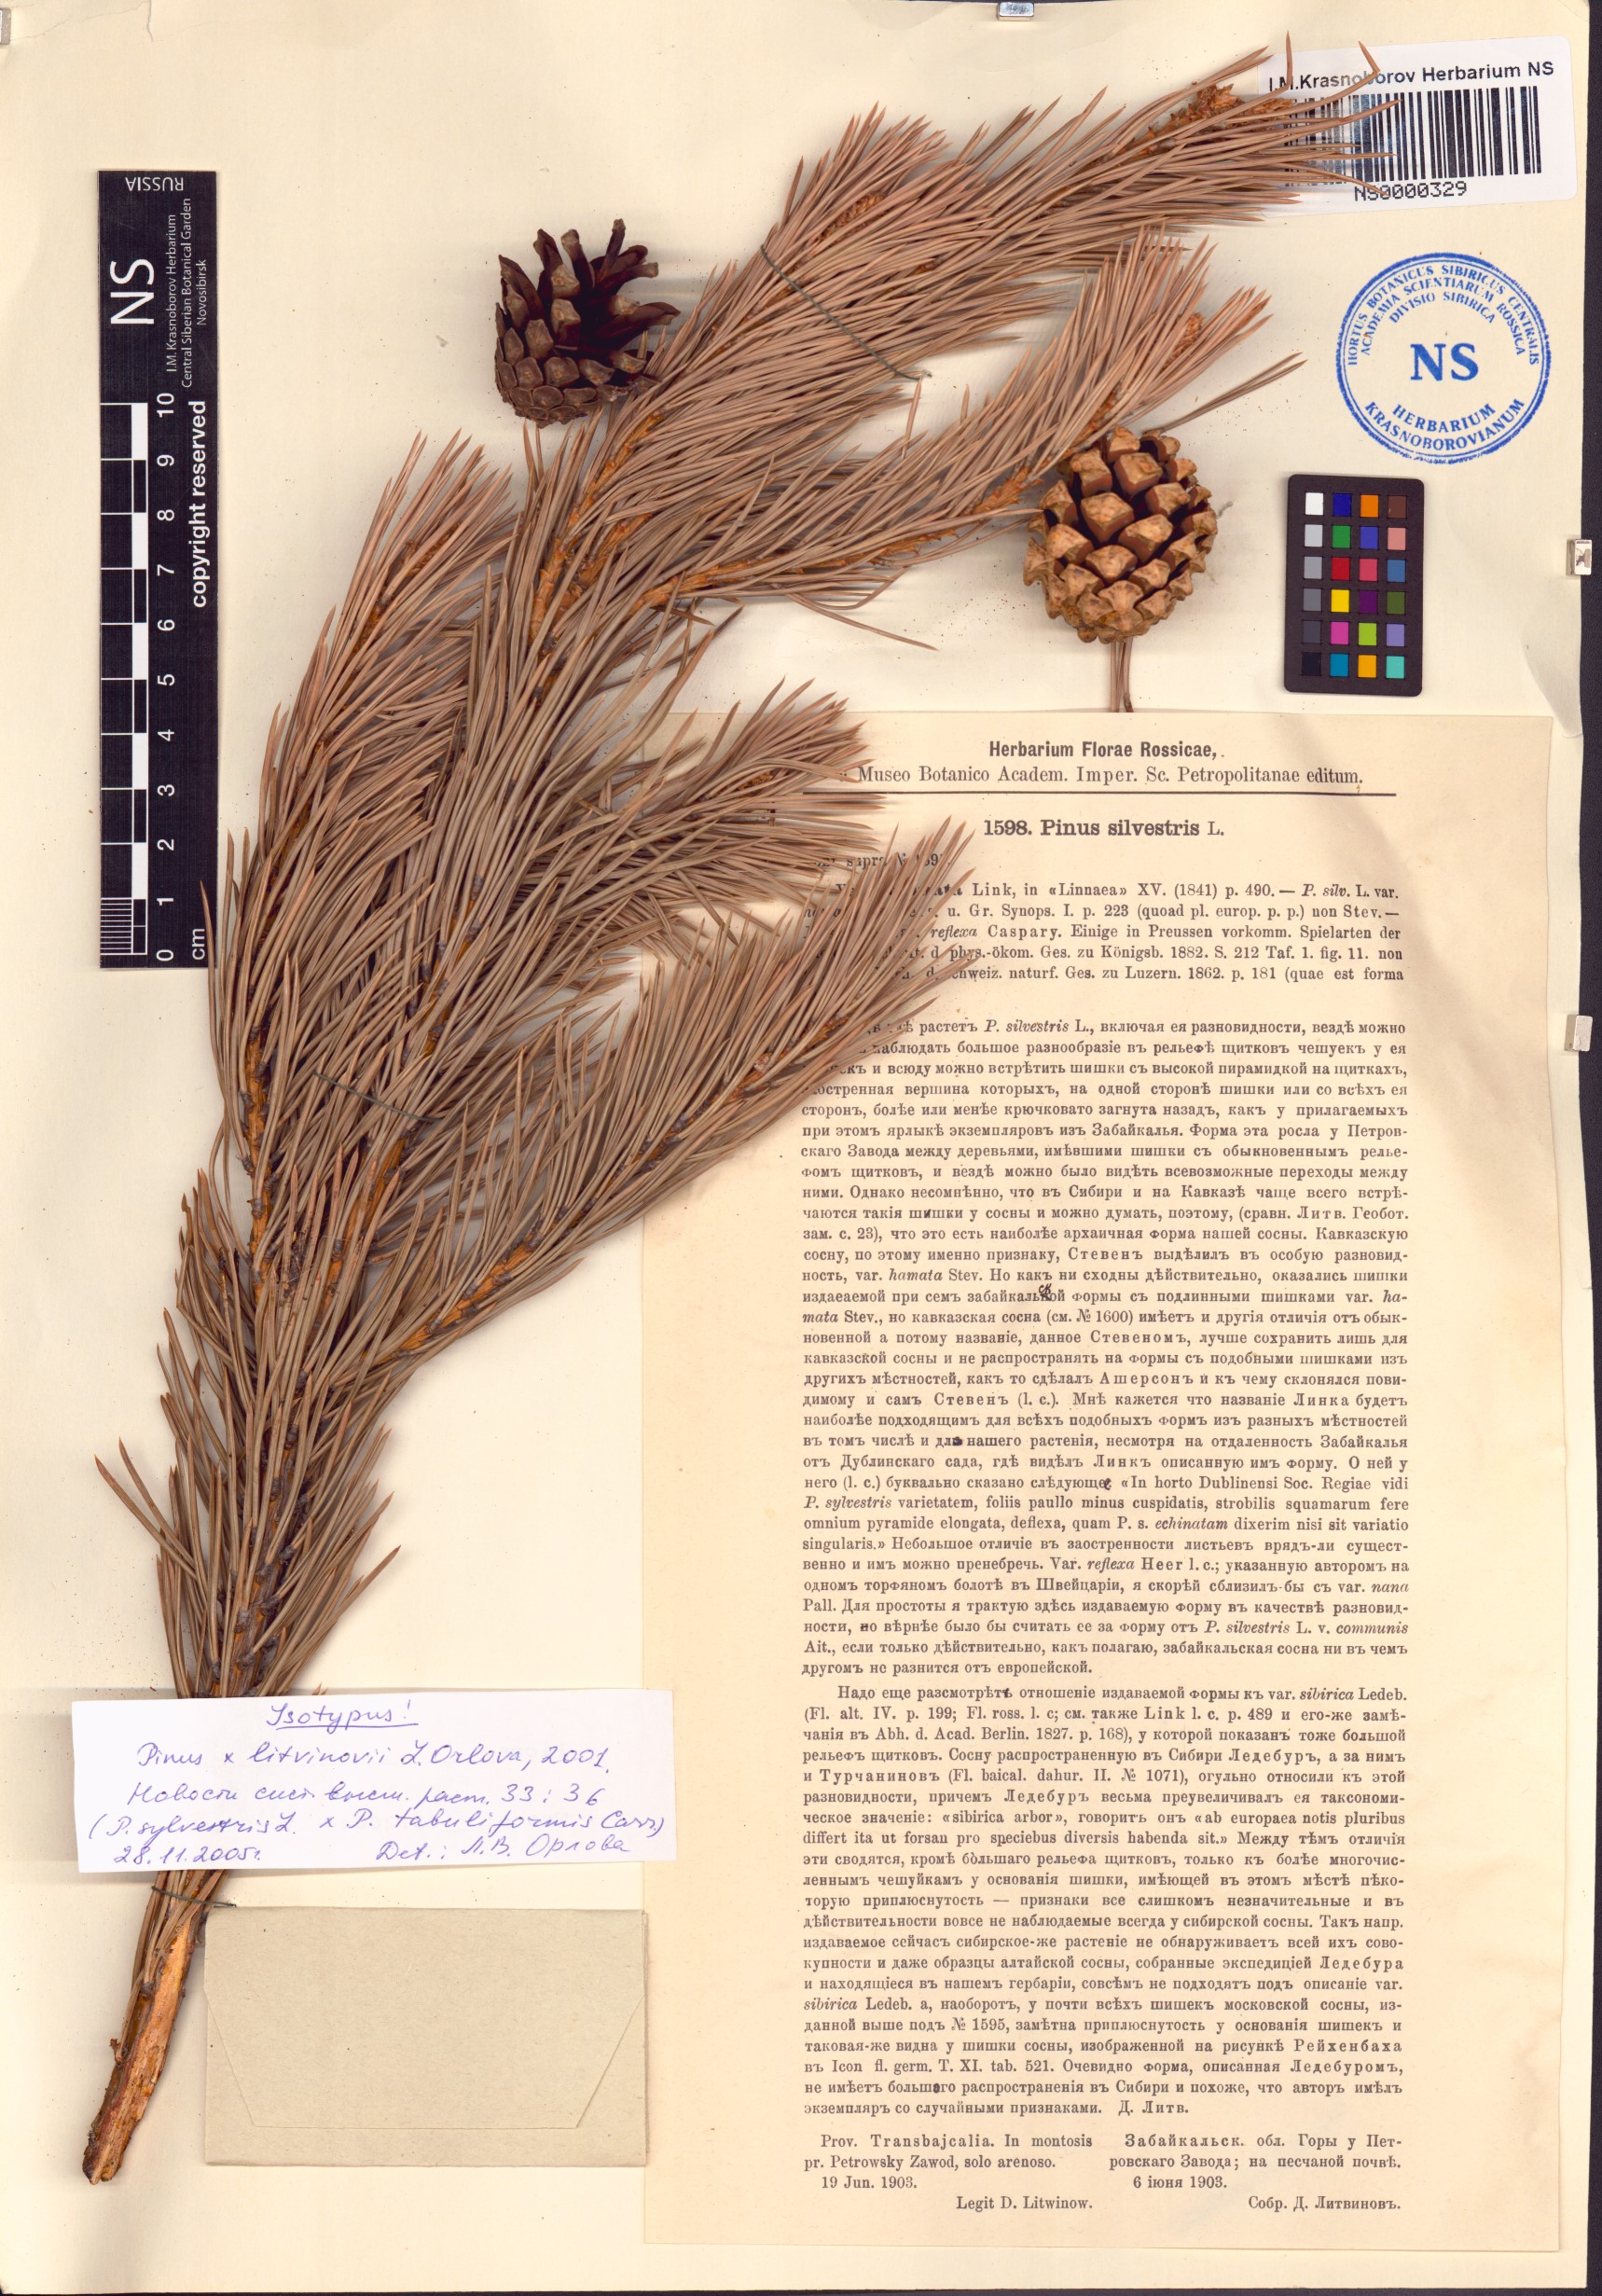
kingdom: Plantae
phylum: Tracheophyta
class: Pinopsida
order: Pinales
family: Pinaceae
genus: Pinus
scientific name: Pinus litvinovii
